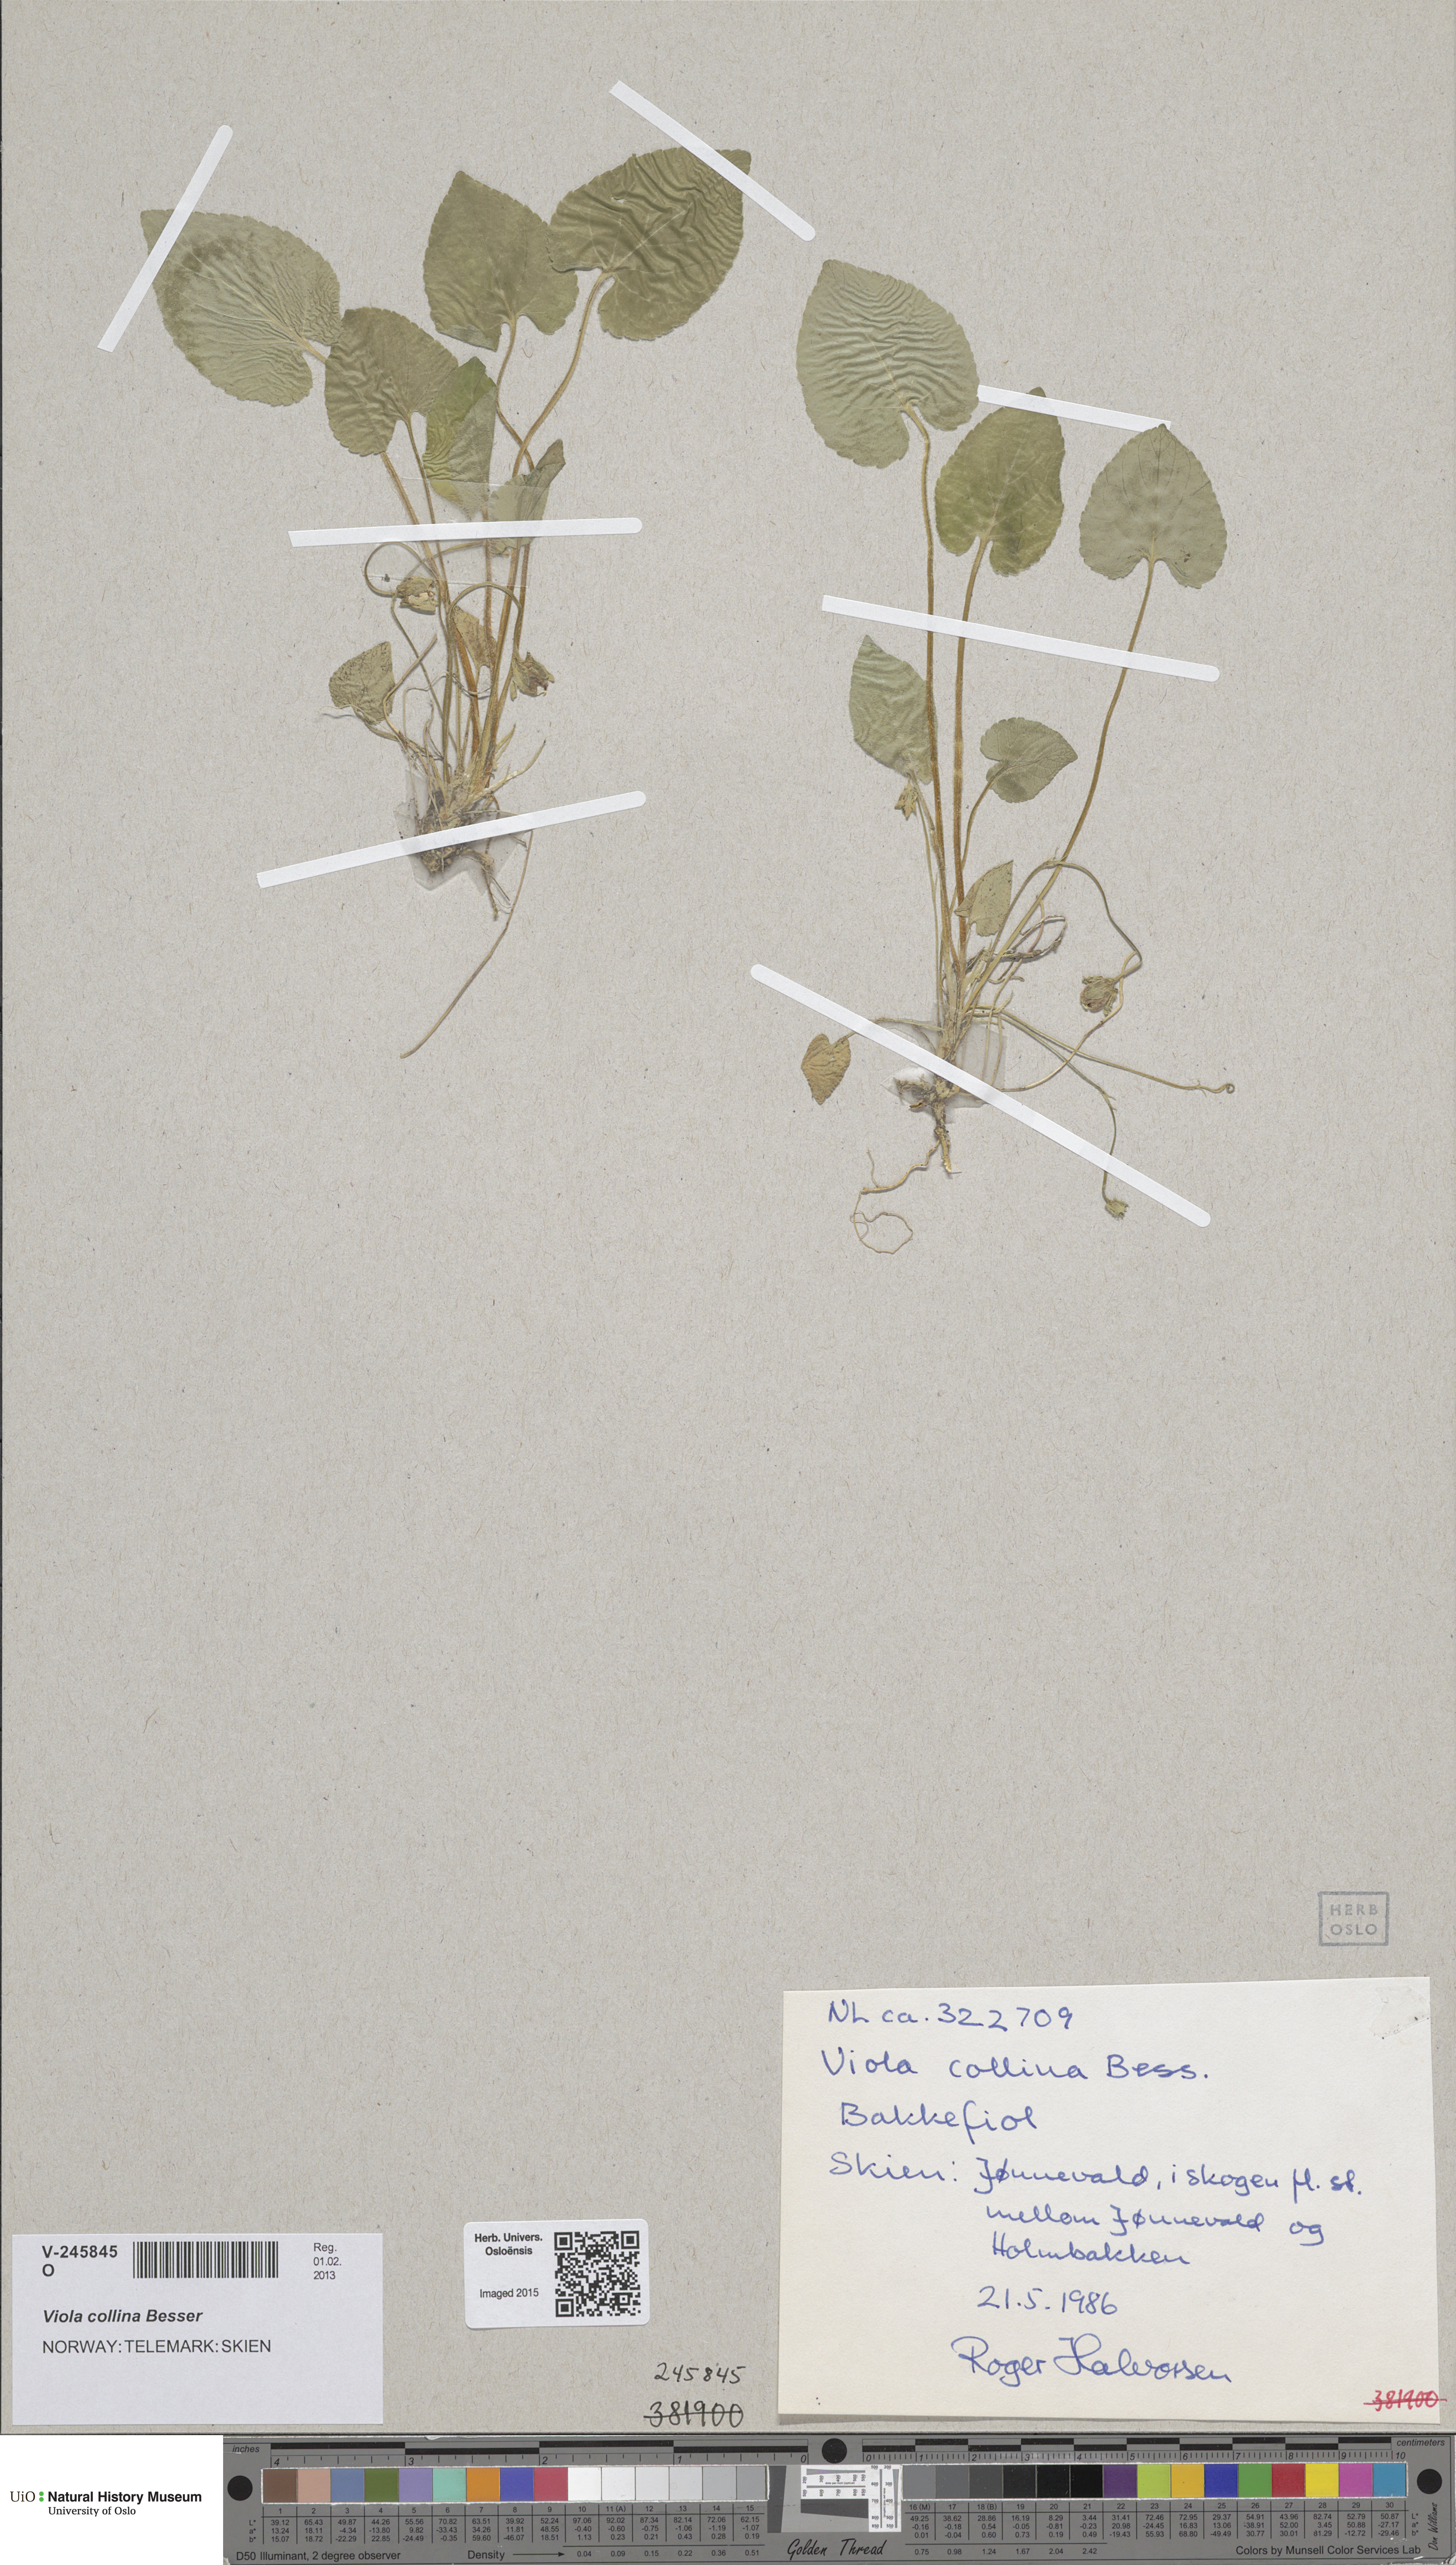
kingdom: Plantae
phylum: Tracheophyta
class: Magnoliopsida
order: Malpighiales
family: Violaceae
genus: Viola
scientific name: Viola collina
